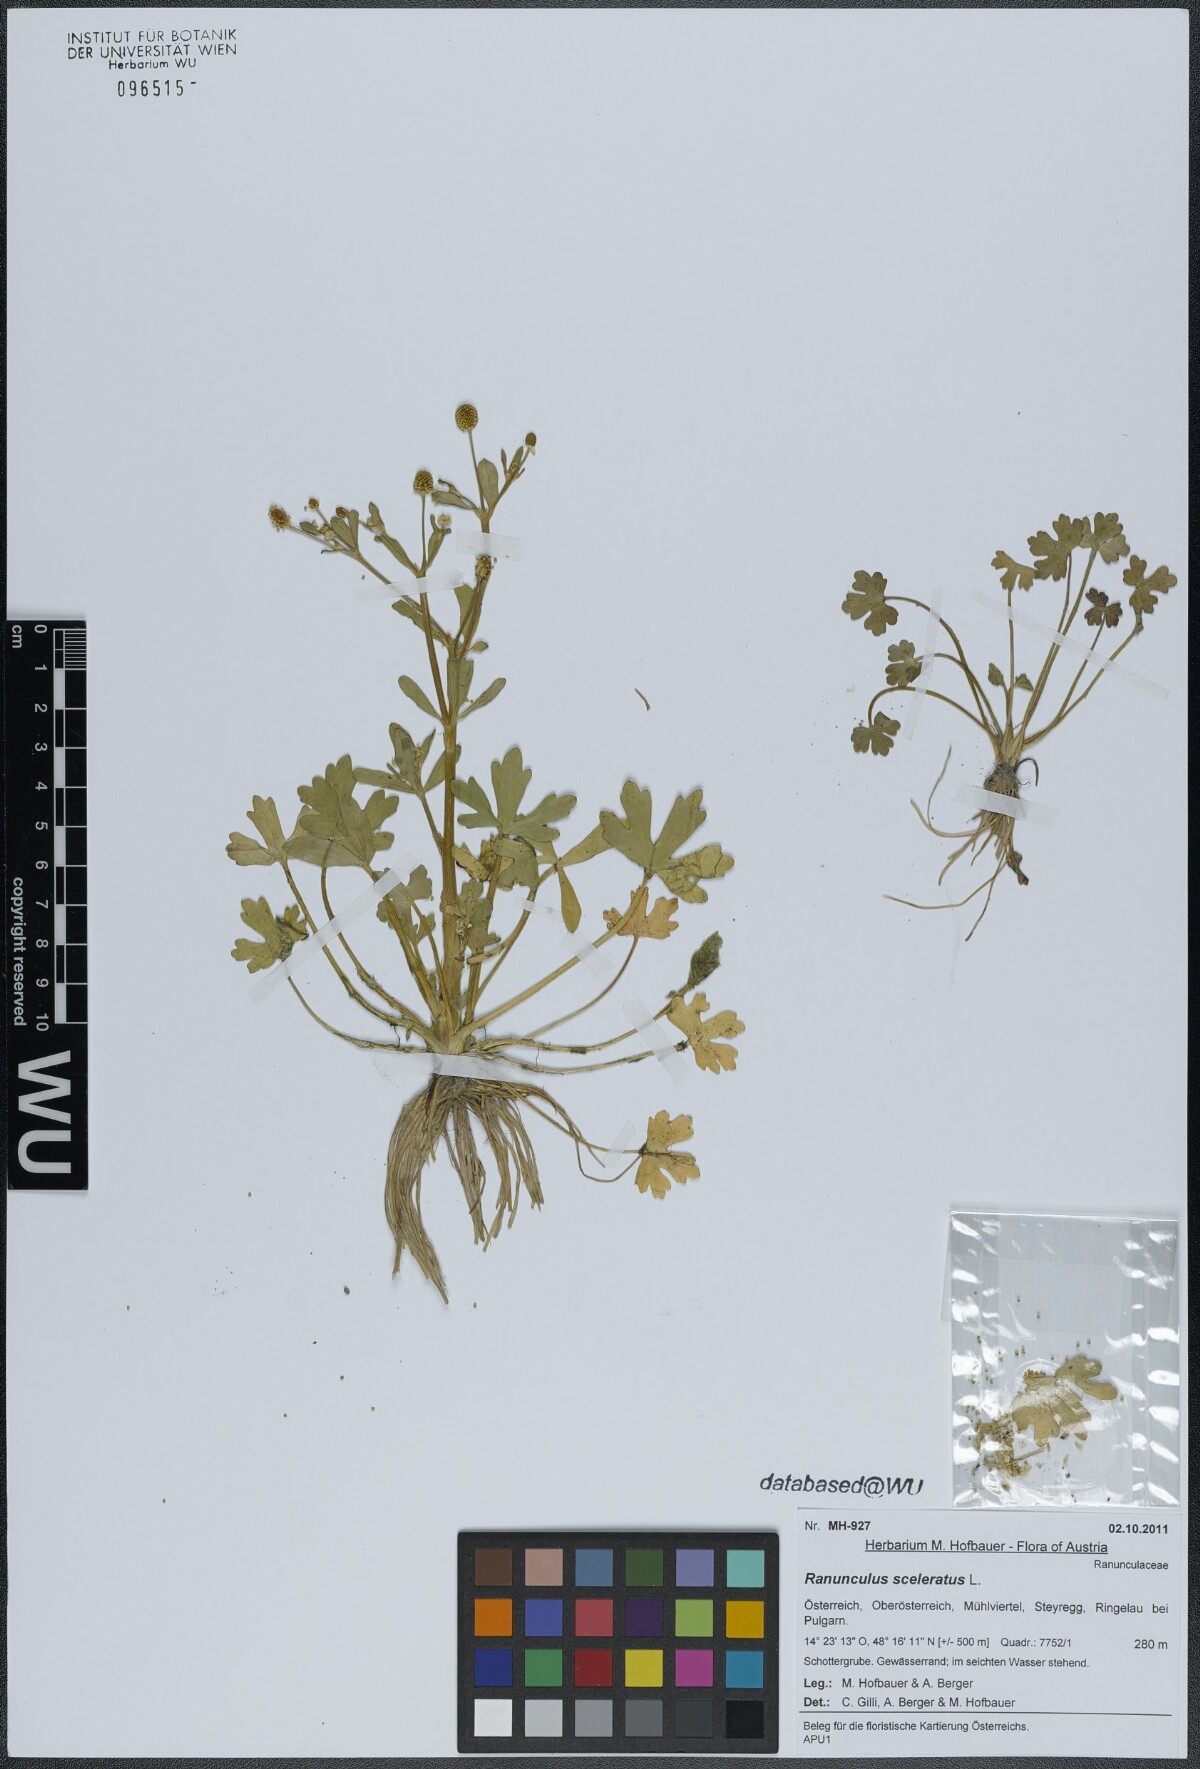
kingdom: Plantae
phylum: Tracheophyta
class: Magnoliopsida
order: Ranunculales
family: Ranunculaceae
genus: Ranunculus
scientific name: Ranunculus sceleratus
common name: Celery-leaved buttercup
